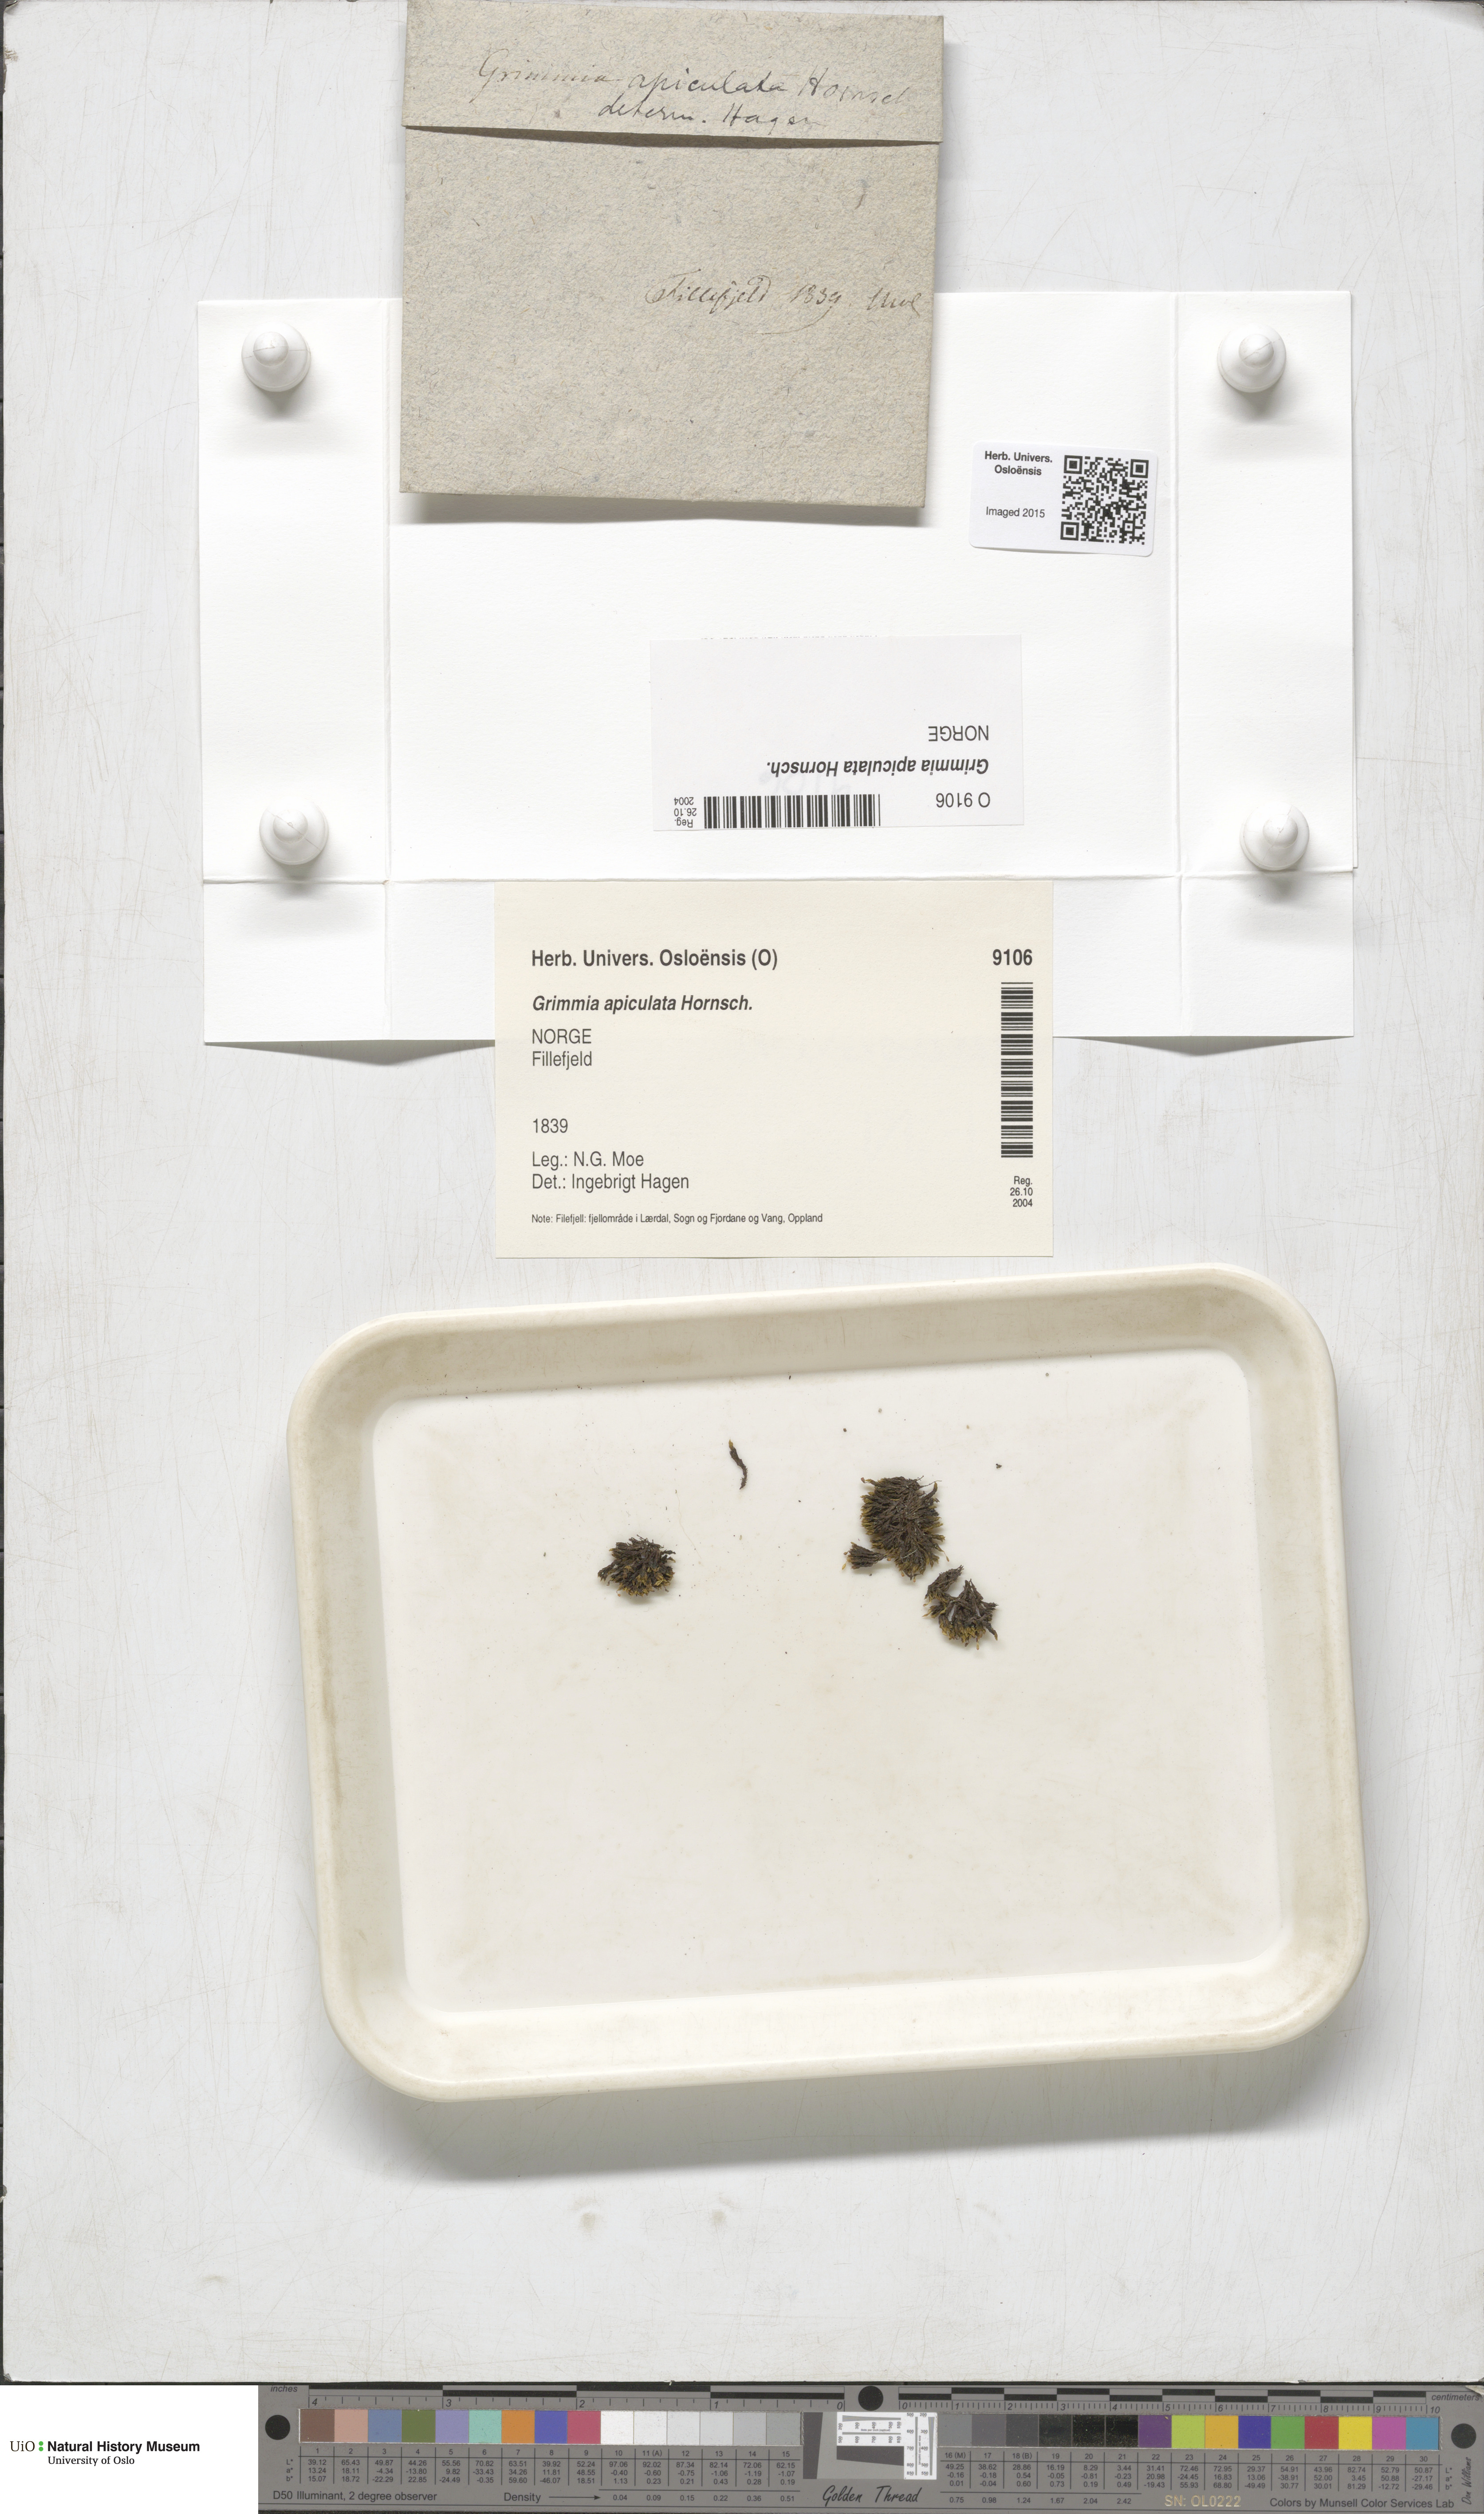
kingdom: Plantae
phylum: Bryophyta
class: Bryopsida
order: Grimmiales
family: Grimmiaceae
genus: Grimmia
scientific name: Grimmia fuscolutea
